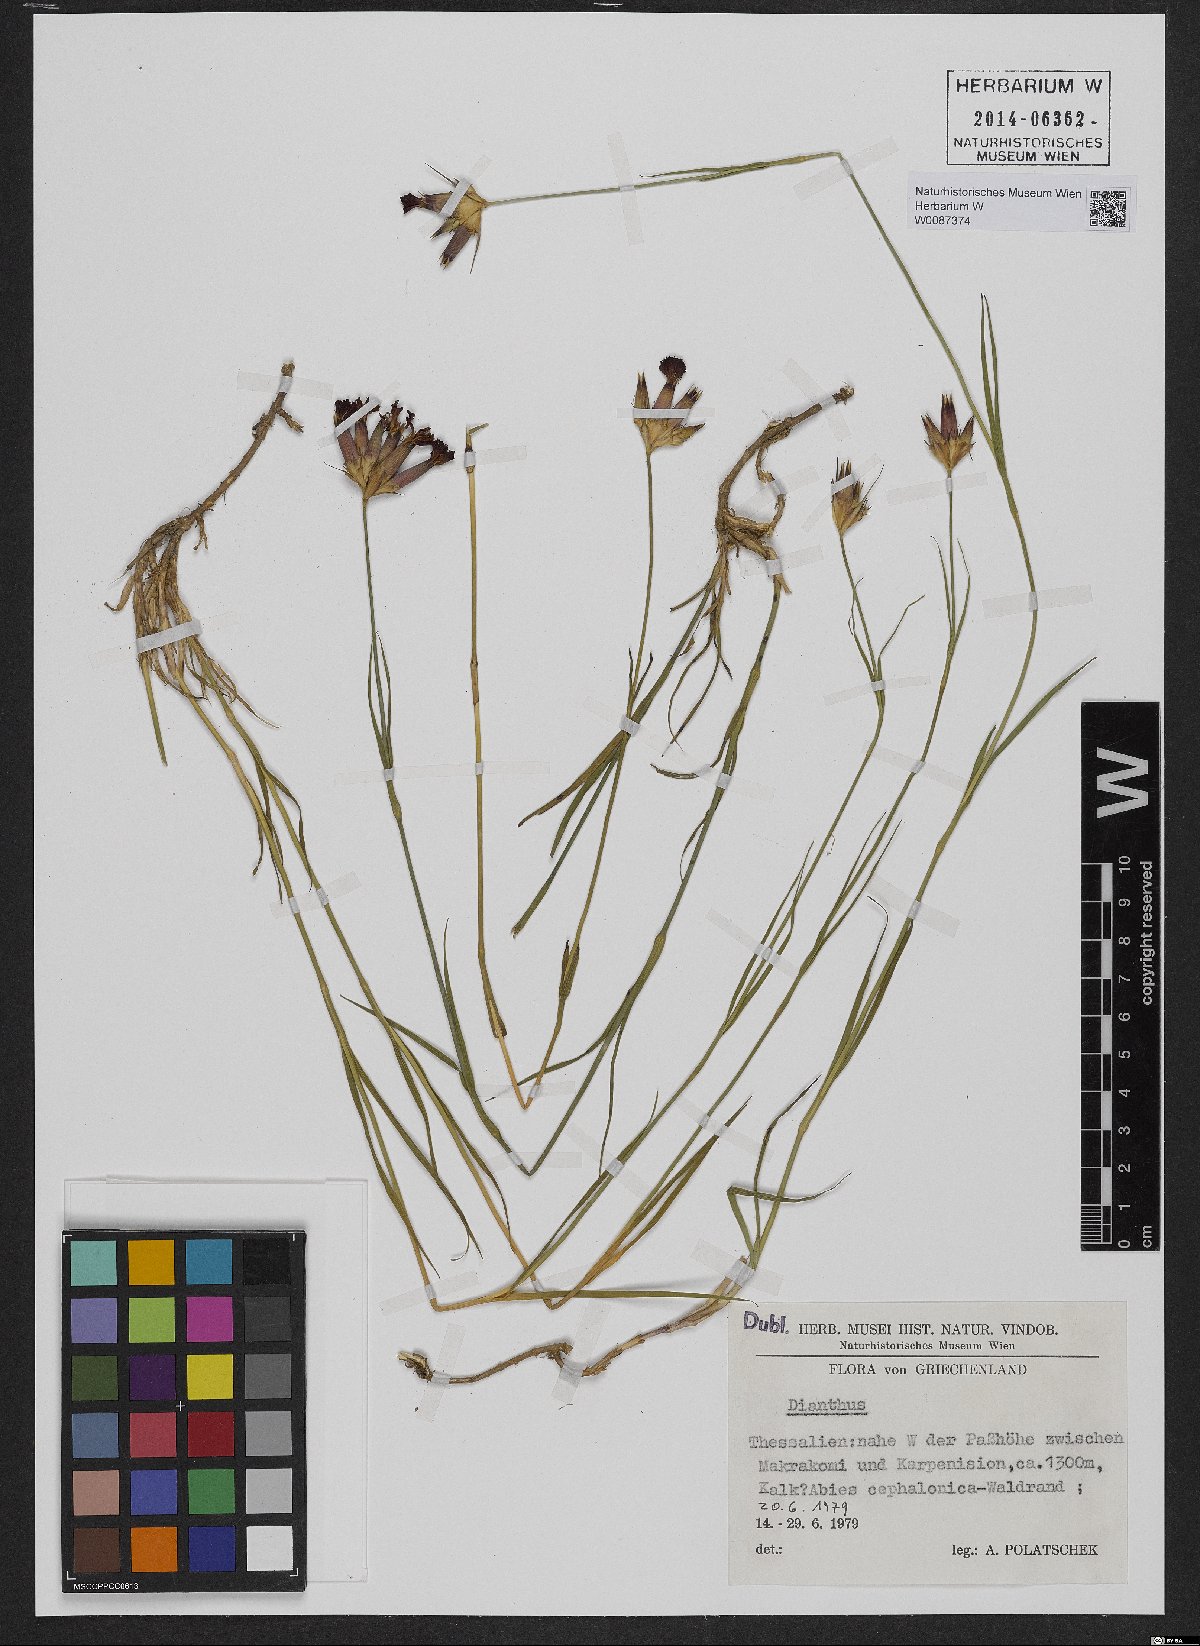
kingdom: Plantae
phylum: Tracheophyta
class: Magnoliopsida
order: Caryophyllales
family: Caryophyllaceae
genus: Dianthus
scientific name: Dianthus cruentus
